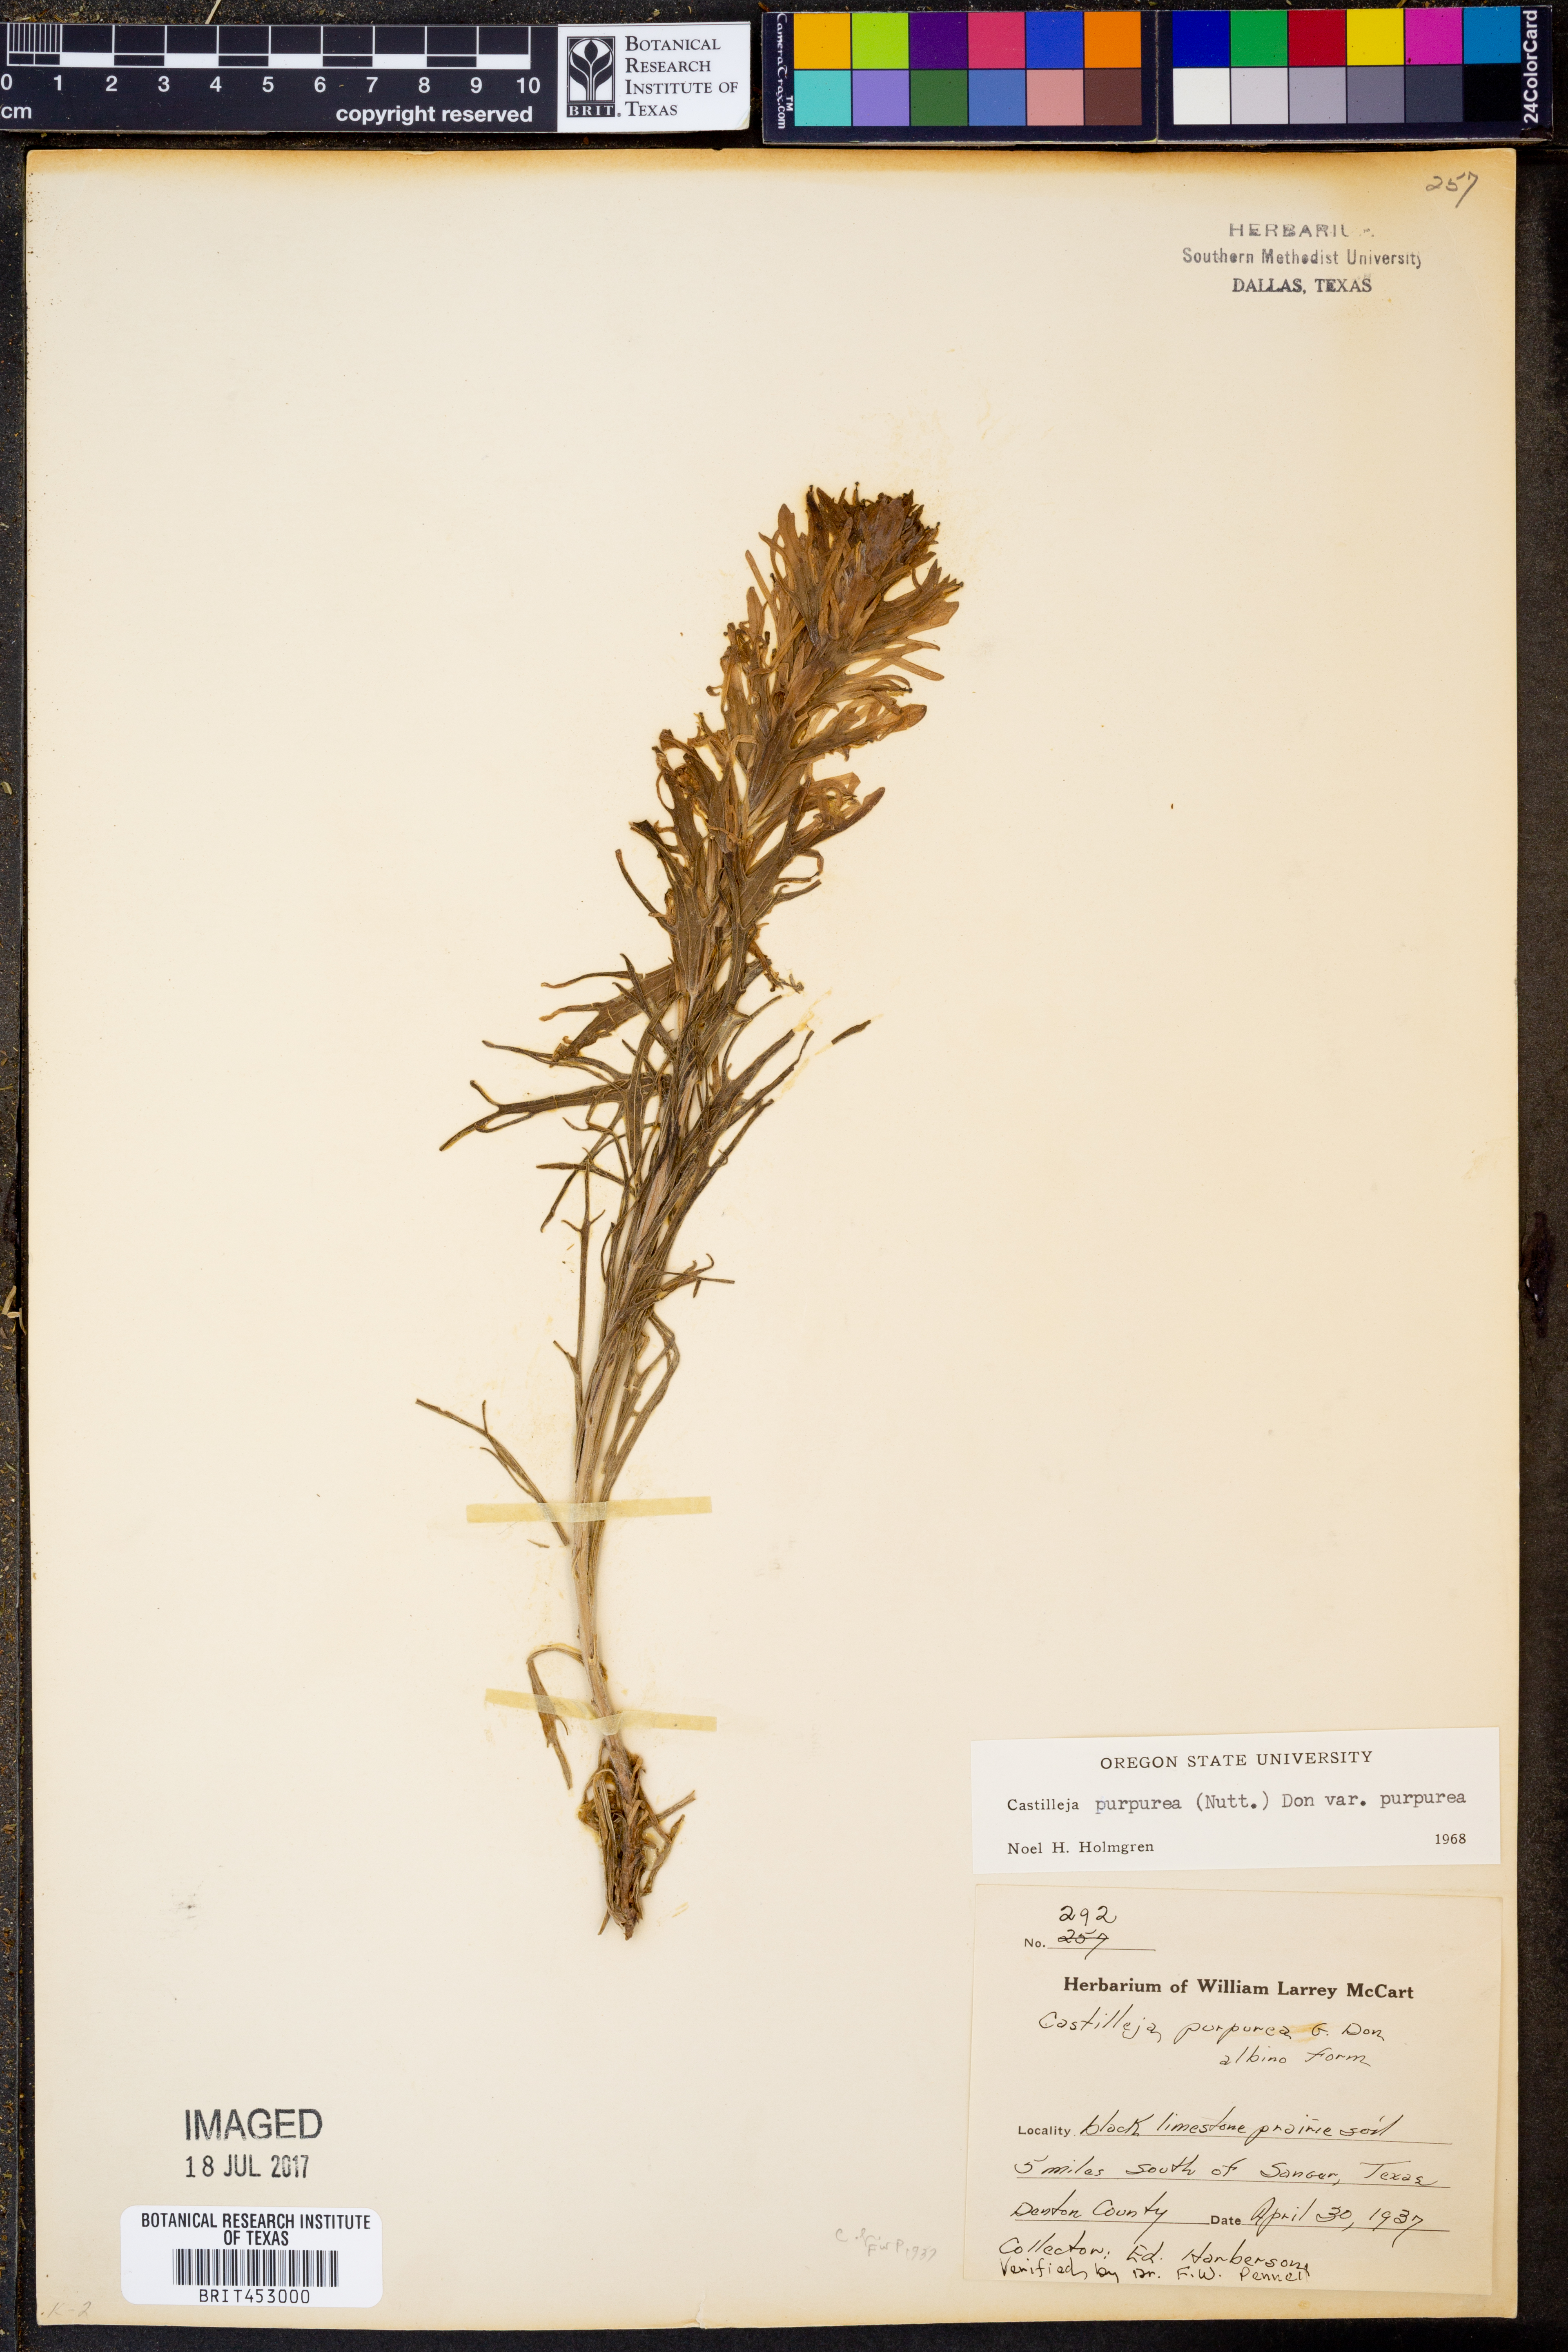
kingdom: Plantae
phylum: Tracheophyta
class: Magnoliopsida
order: Lamiales
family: Orobanchaceae
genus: Castilleja
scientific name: Castilleja purpurea
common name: Plains paintbrush
